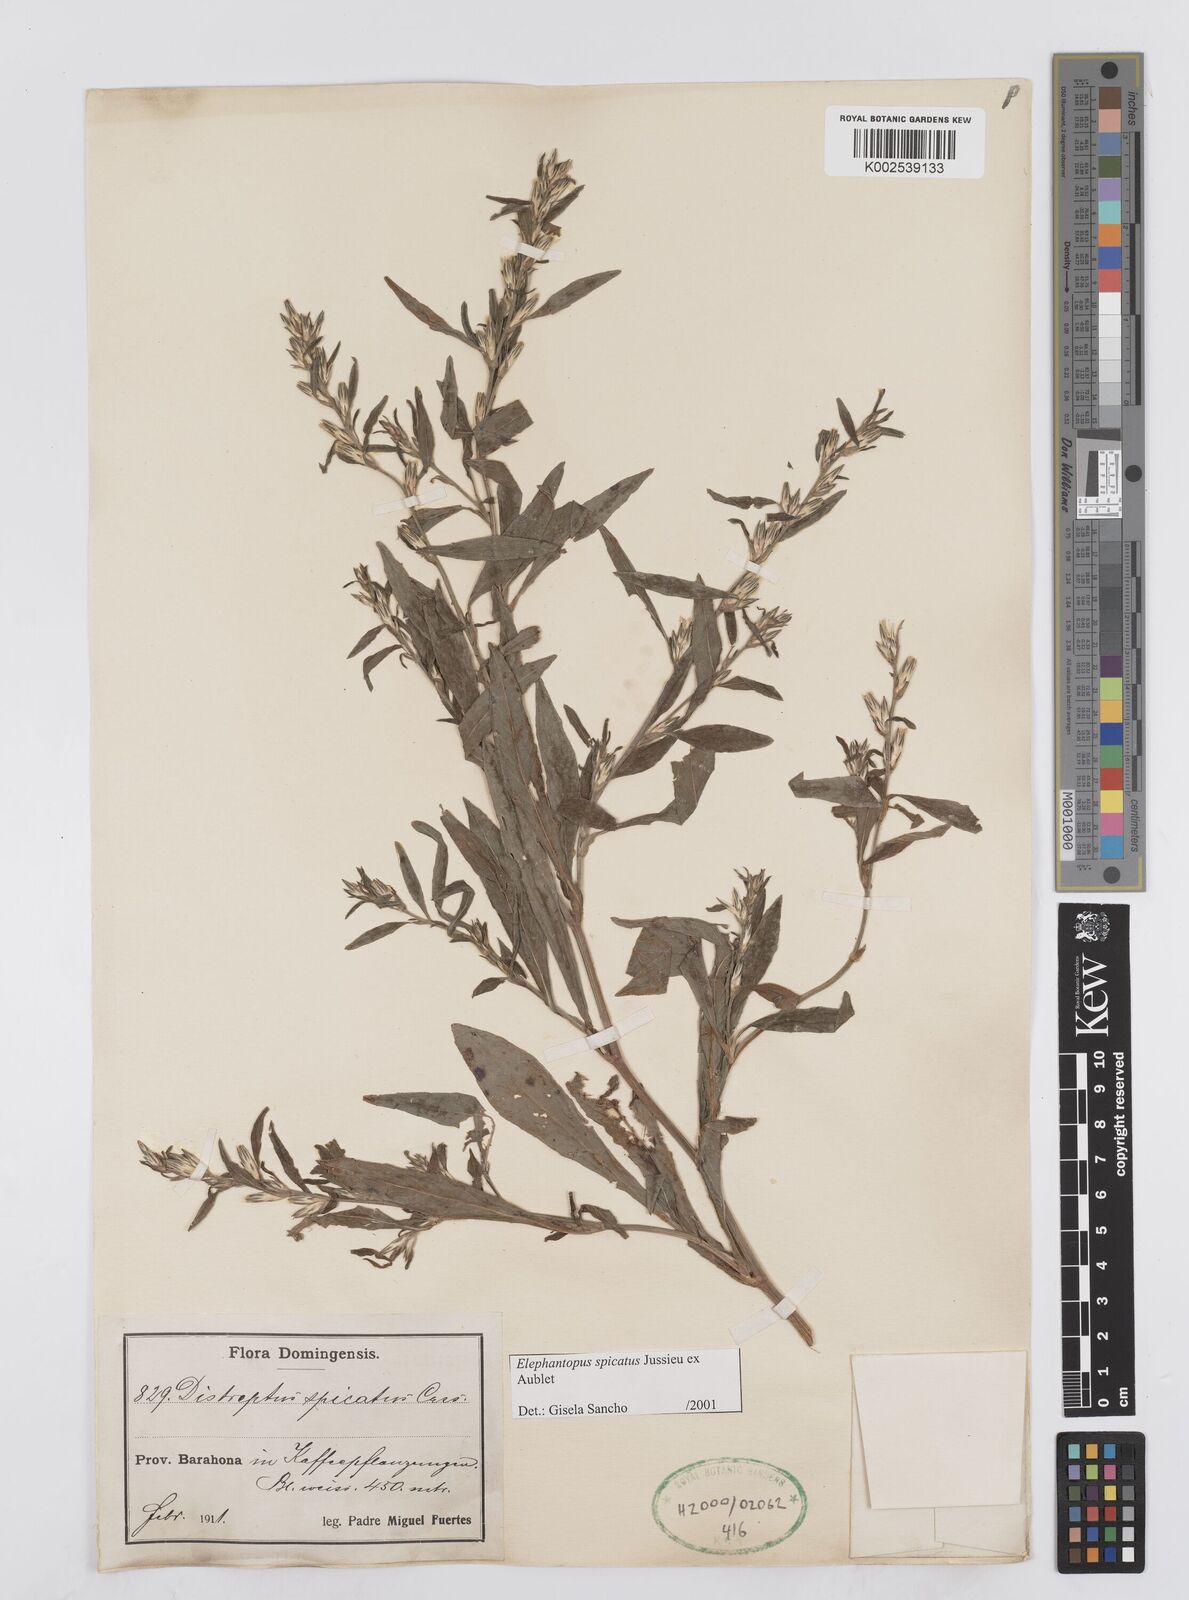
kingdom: Plantae
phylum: Tracheophyta
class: Magnoliopsida
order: Asterales
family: Asteraceae
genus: Pseudelephantopus
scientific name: Pseudelephantopus spicatus
